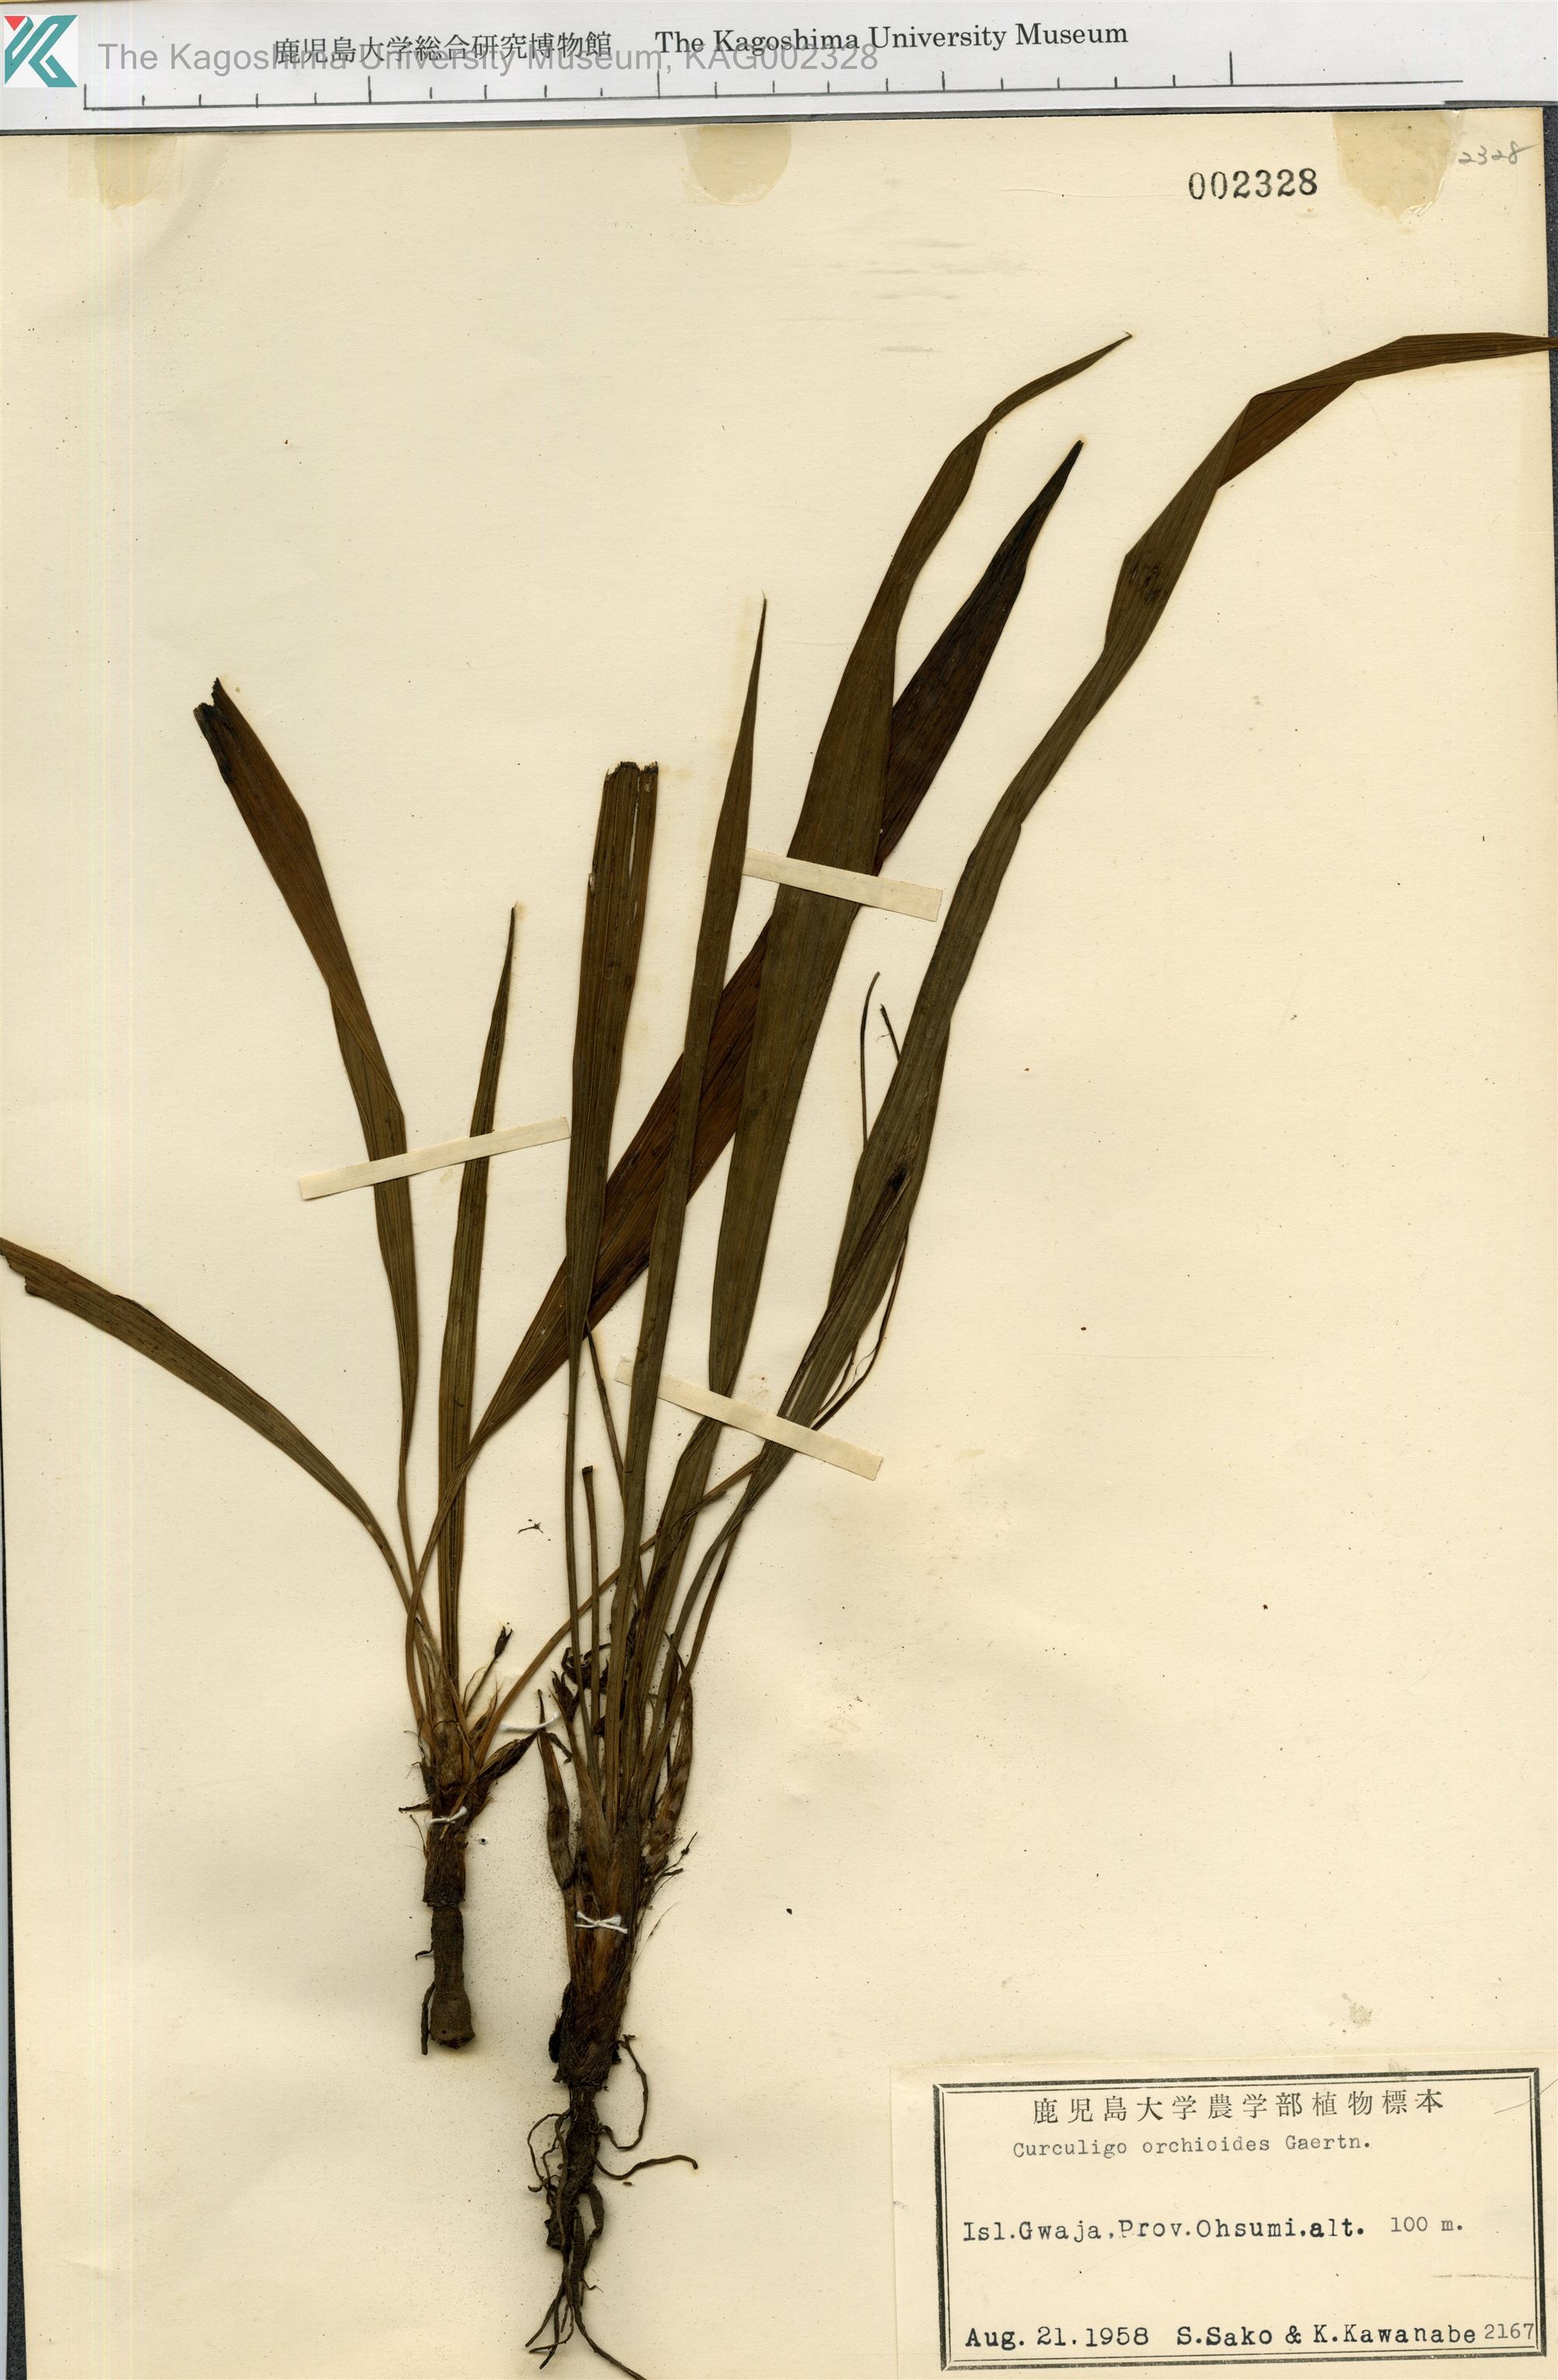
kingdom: Plantae
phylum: Tracheophyta
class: Liliopsida
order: Asparagales
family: Hypoxidaceae
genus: Curculigo
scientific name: Curculigo orchioides
